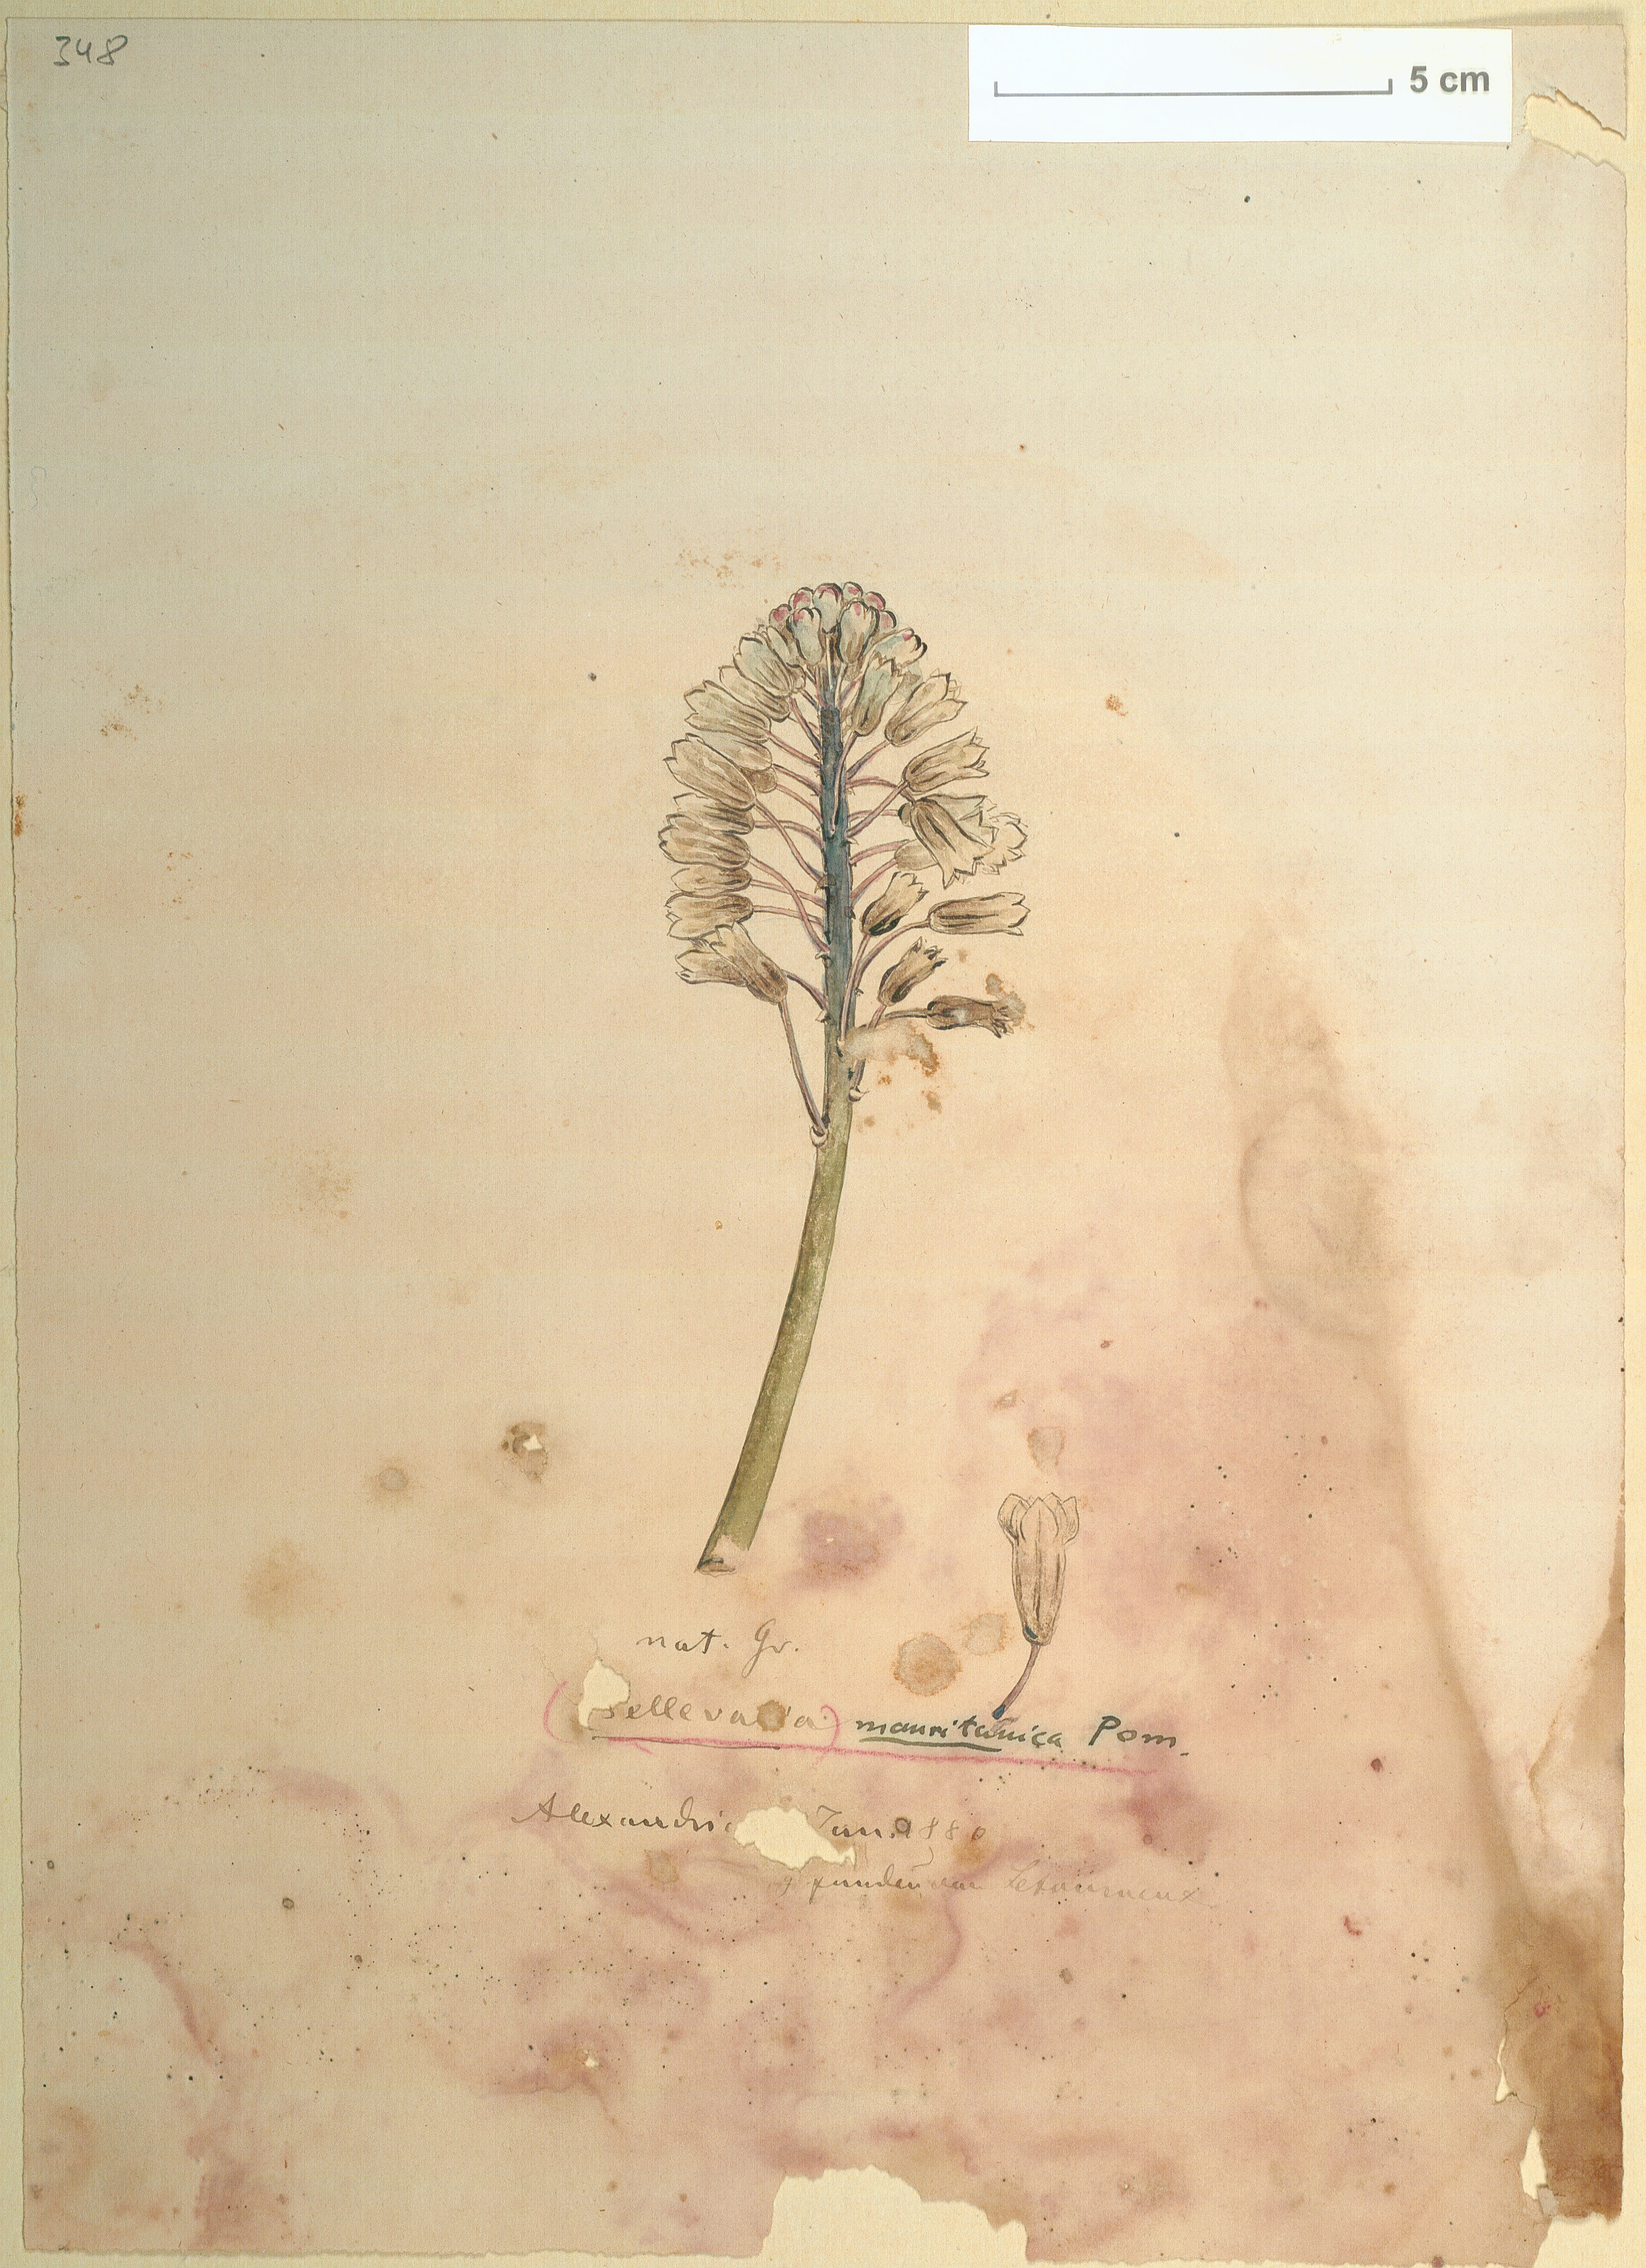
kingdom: Plantae
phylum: Tracheophyta
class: Liliopsida
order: Asparagales
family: Asparagaceae
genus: Bellevalia
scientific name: Bellevalia mauritanica
